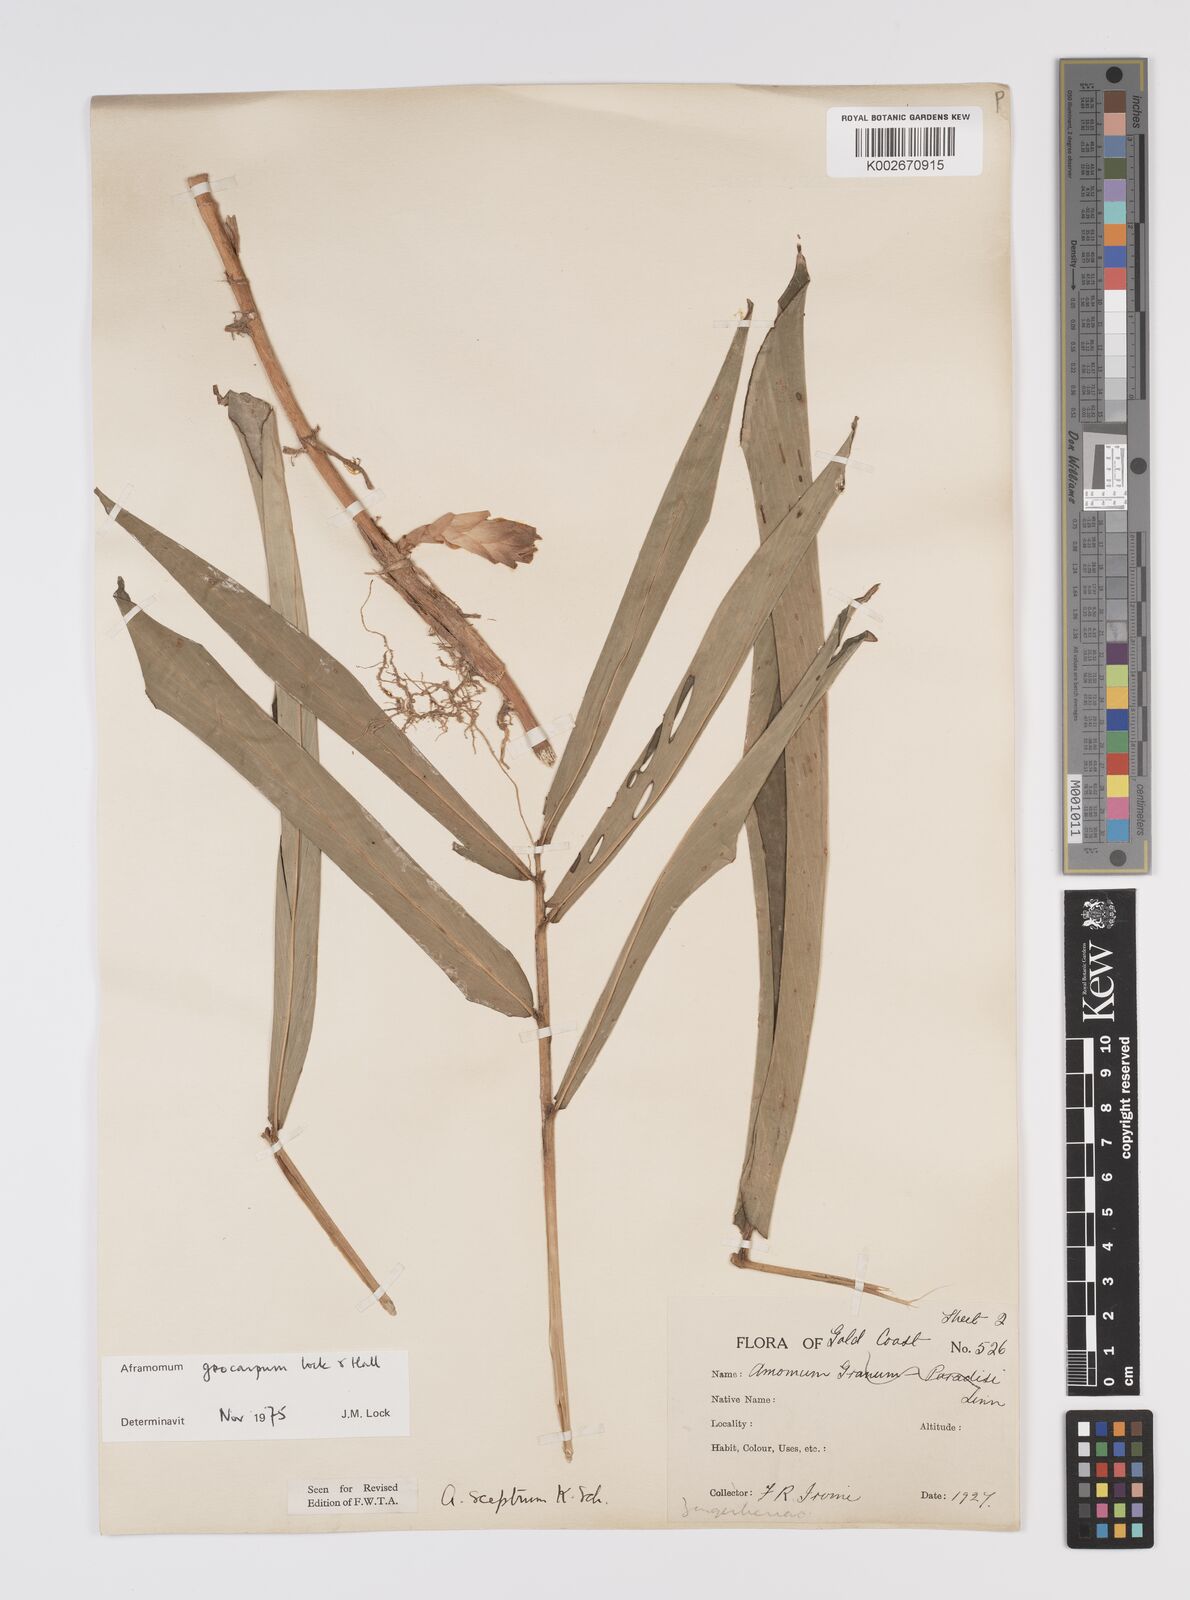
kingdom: Plantae
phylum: Tracheophyta
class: Liliopsida
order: Zingiberales
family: Zingiberaceae
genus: Aframomum
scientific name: Aframomum limbatum
